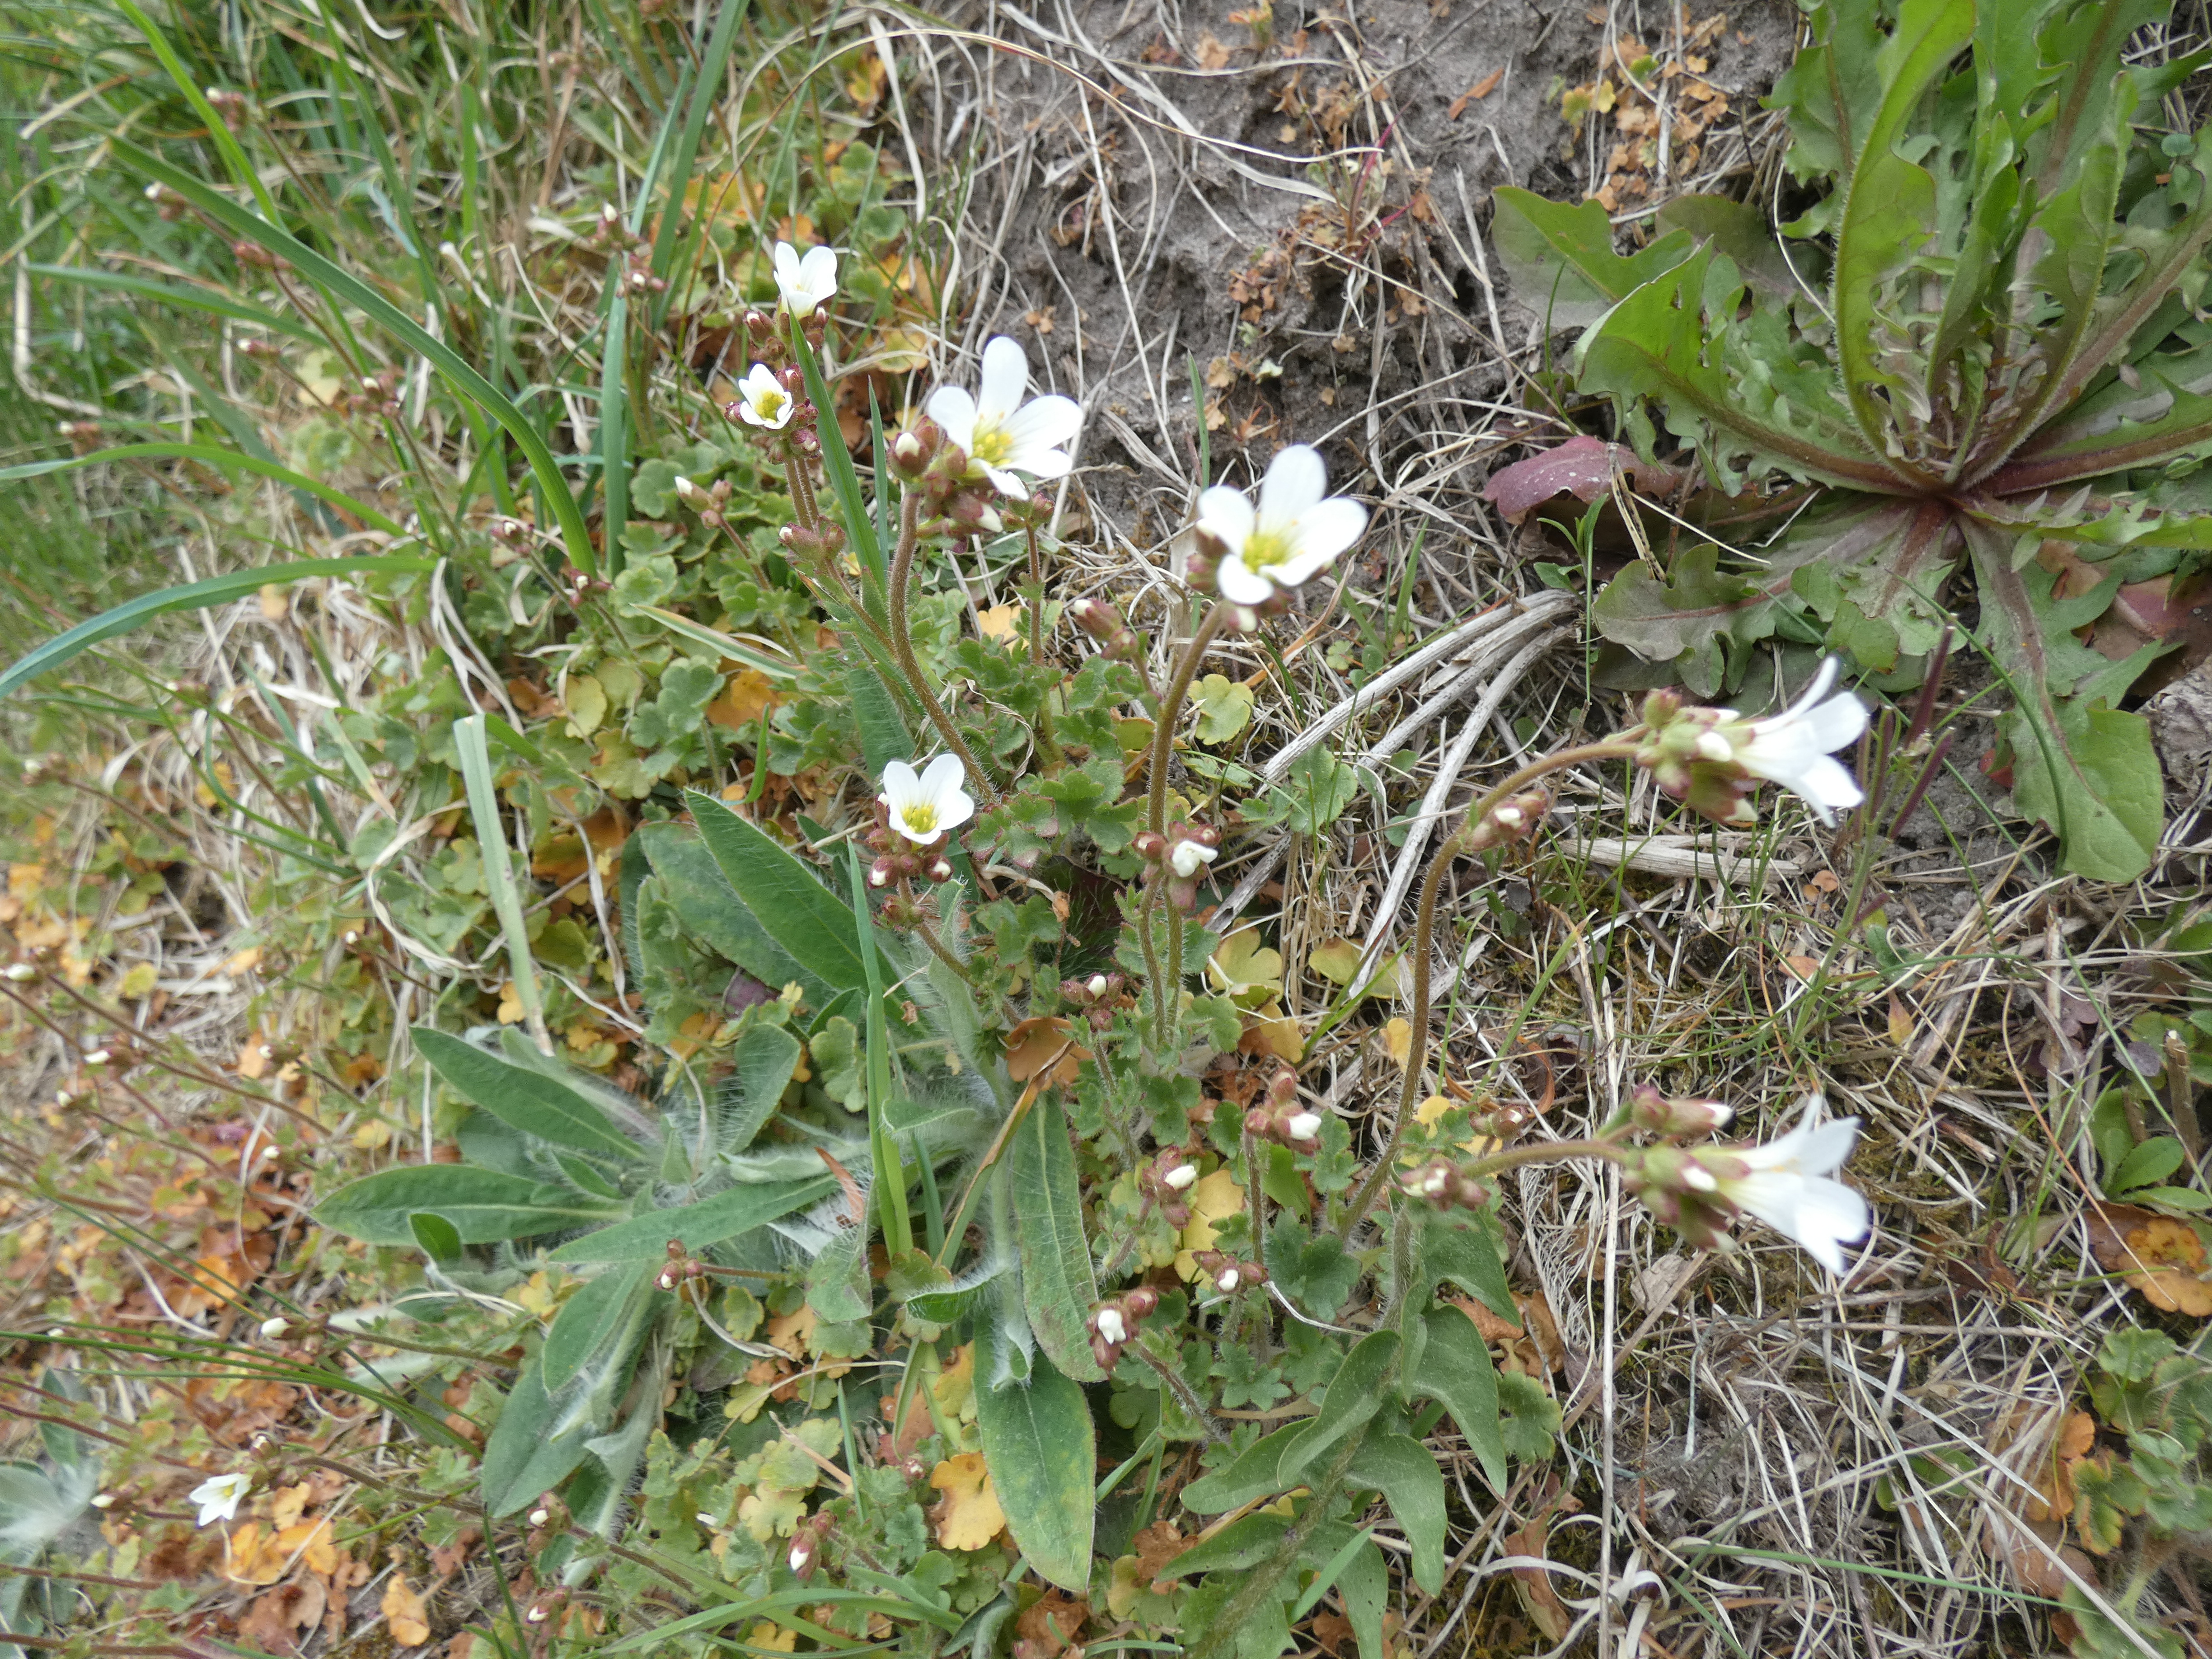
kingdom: Plantae
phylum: Tracheophyta
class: Magnoliopsida
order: Saxifragales
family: Saxifragaceae
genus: Saxifraga
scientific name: Saxifraga granulata
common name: Kornet stenbræk
